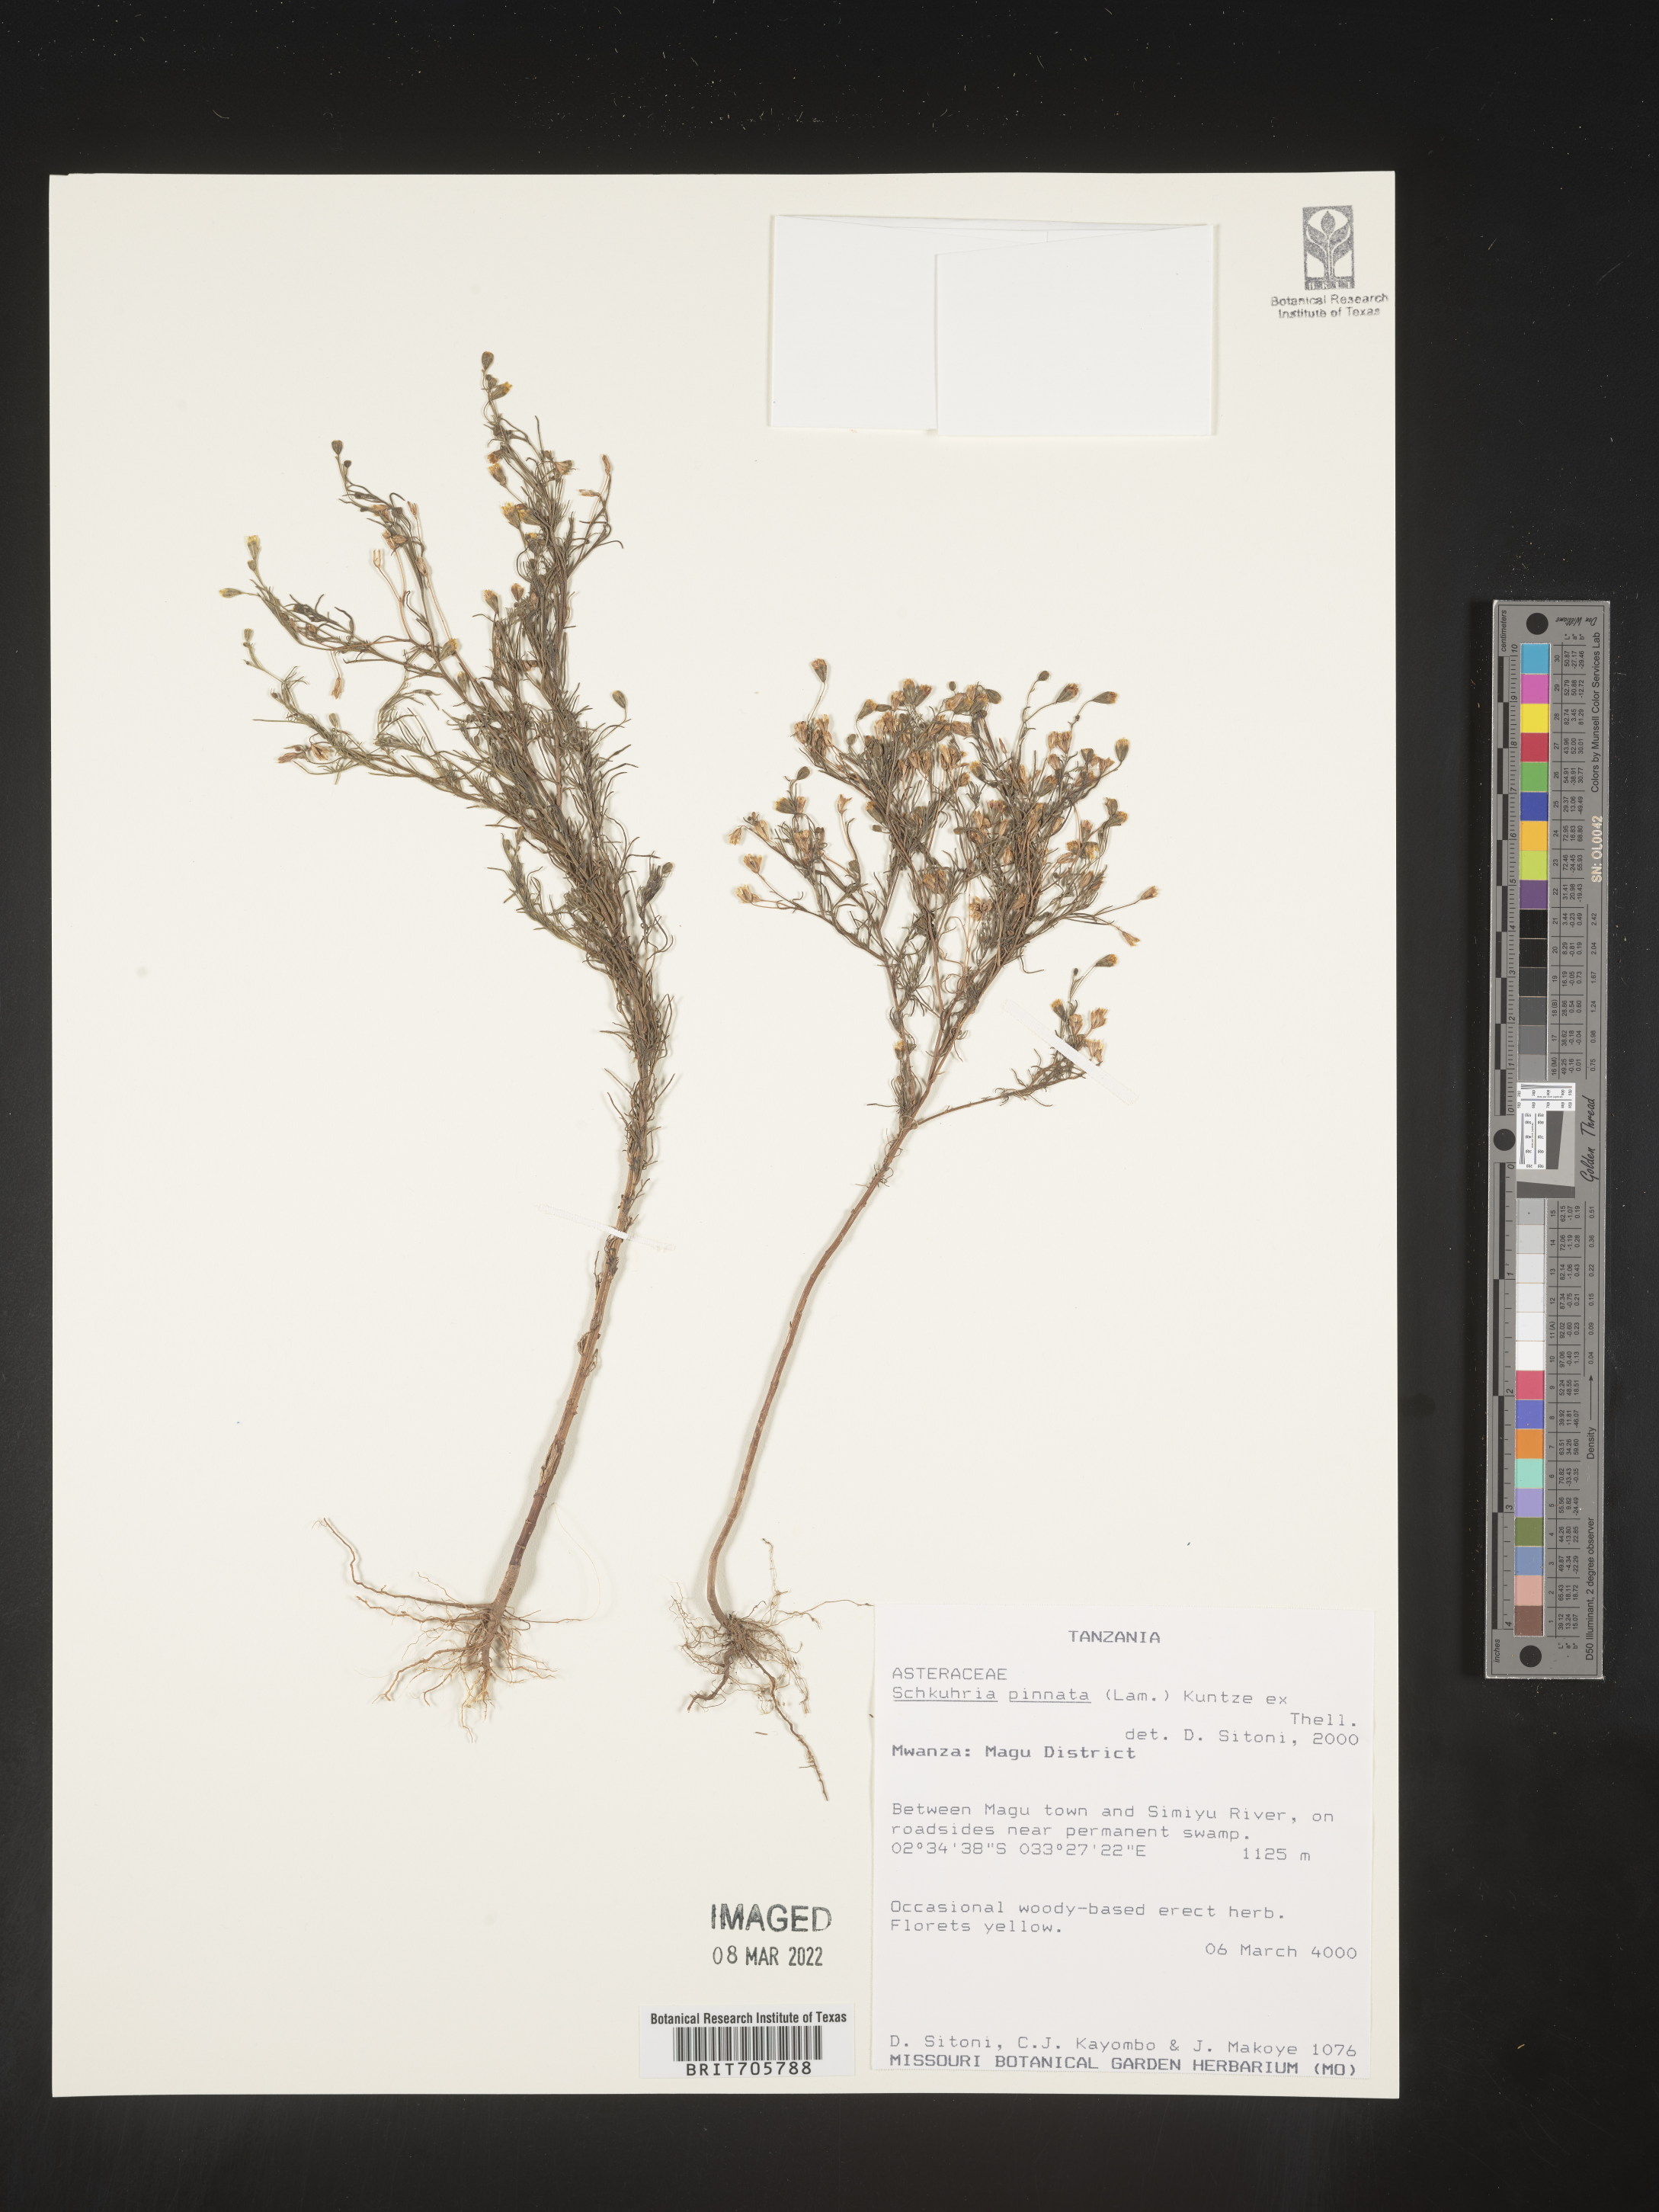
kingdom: Plantae
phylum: Tracheophyta
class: Magnoliopsida
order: Asterales
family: Asteraceae
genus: Schkuhria
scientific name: Schkuhria
